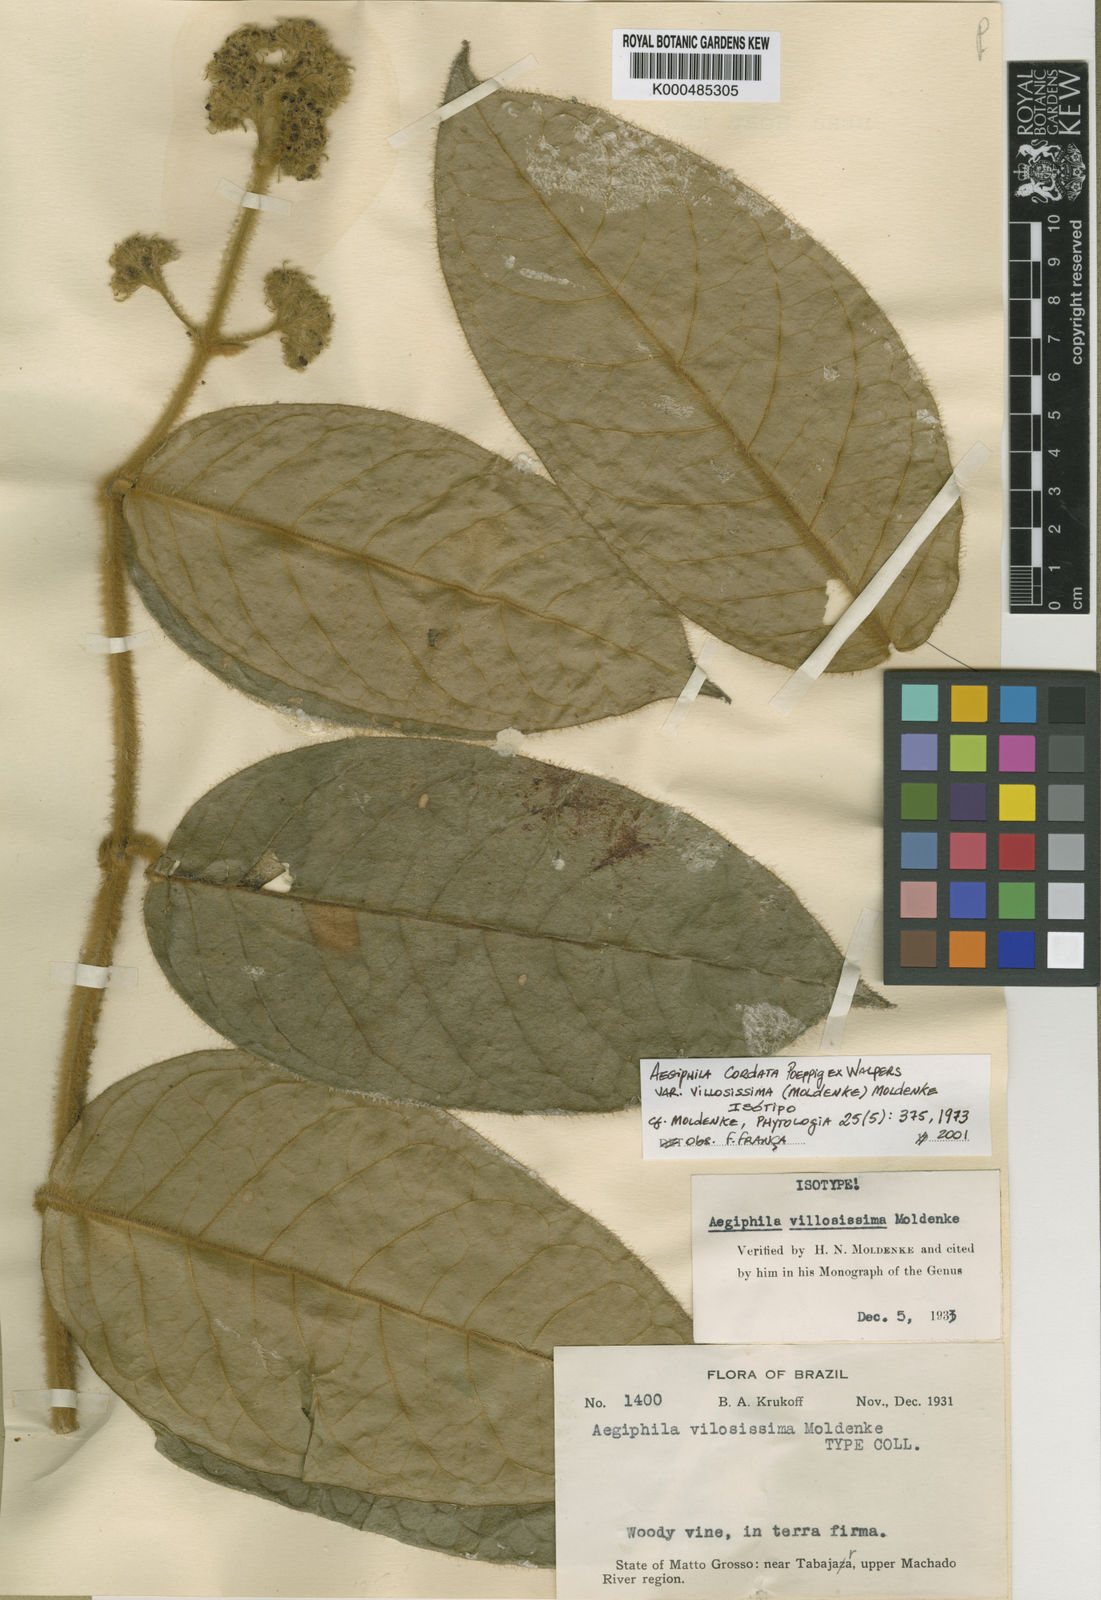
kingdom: Plantae
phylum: Tracheophyta
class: Magnoliopsida
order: Lamiales
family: Lamiaceae
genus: Aegiphila
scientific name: Aegiphila cordata
